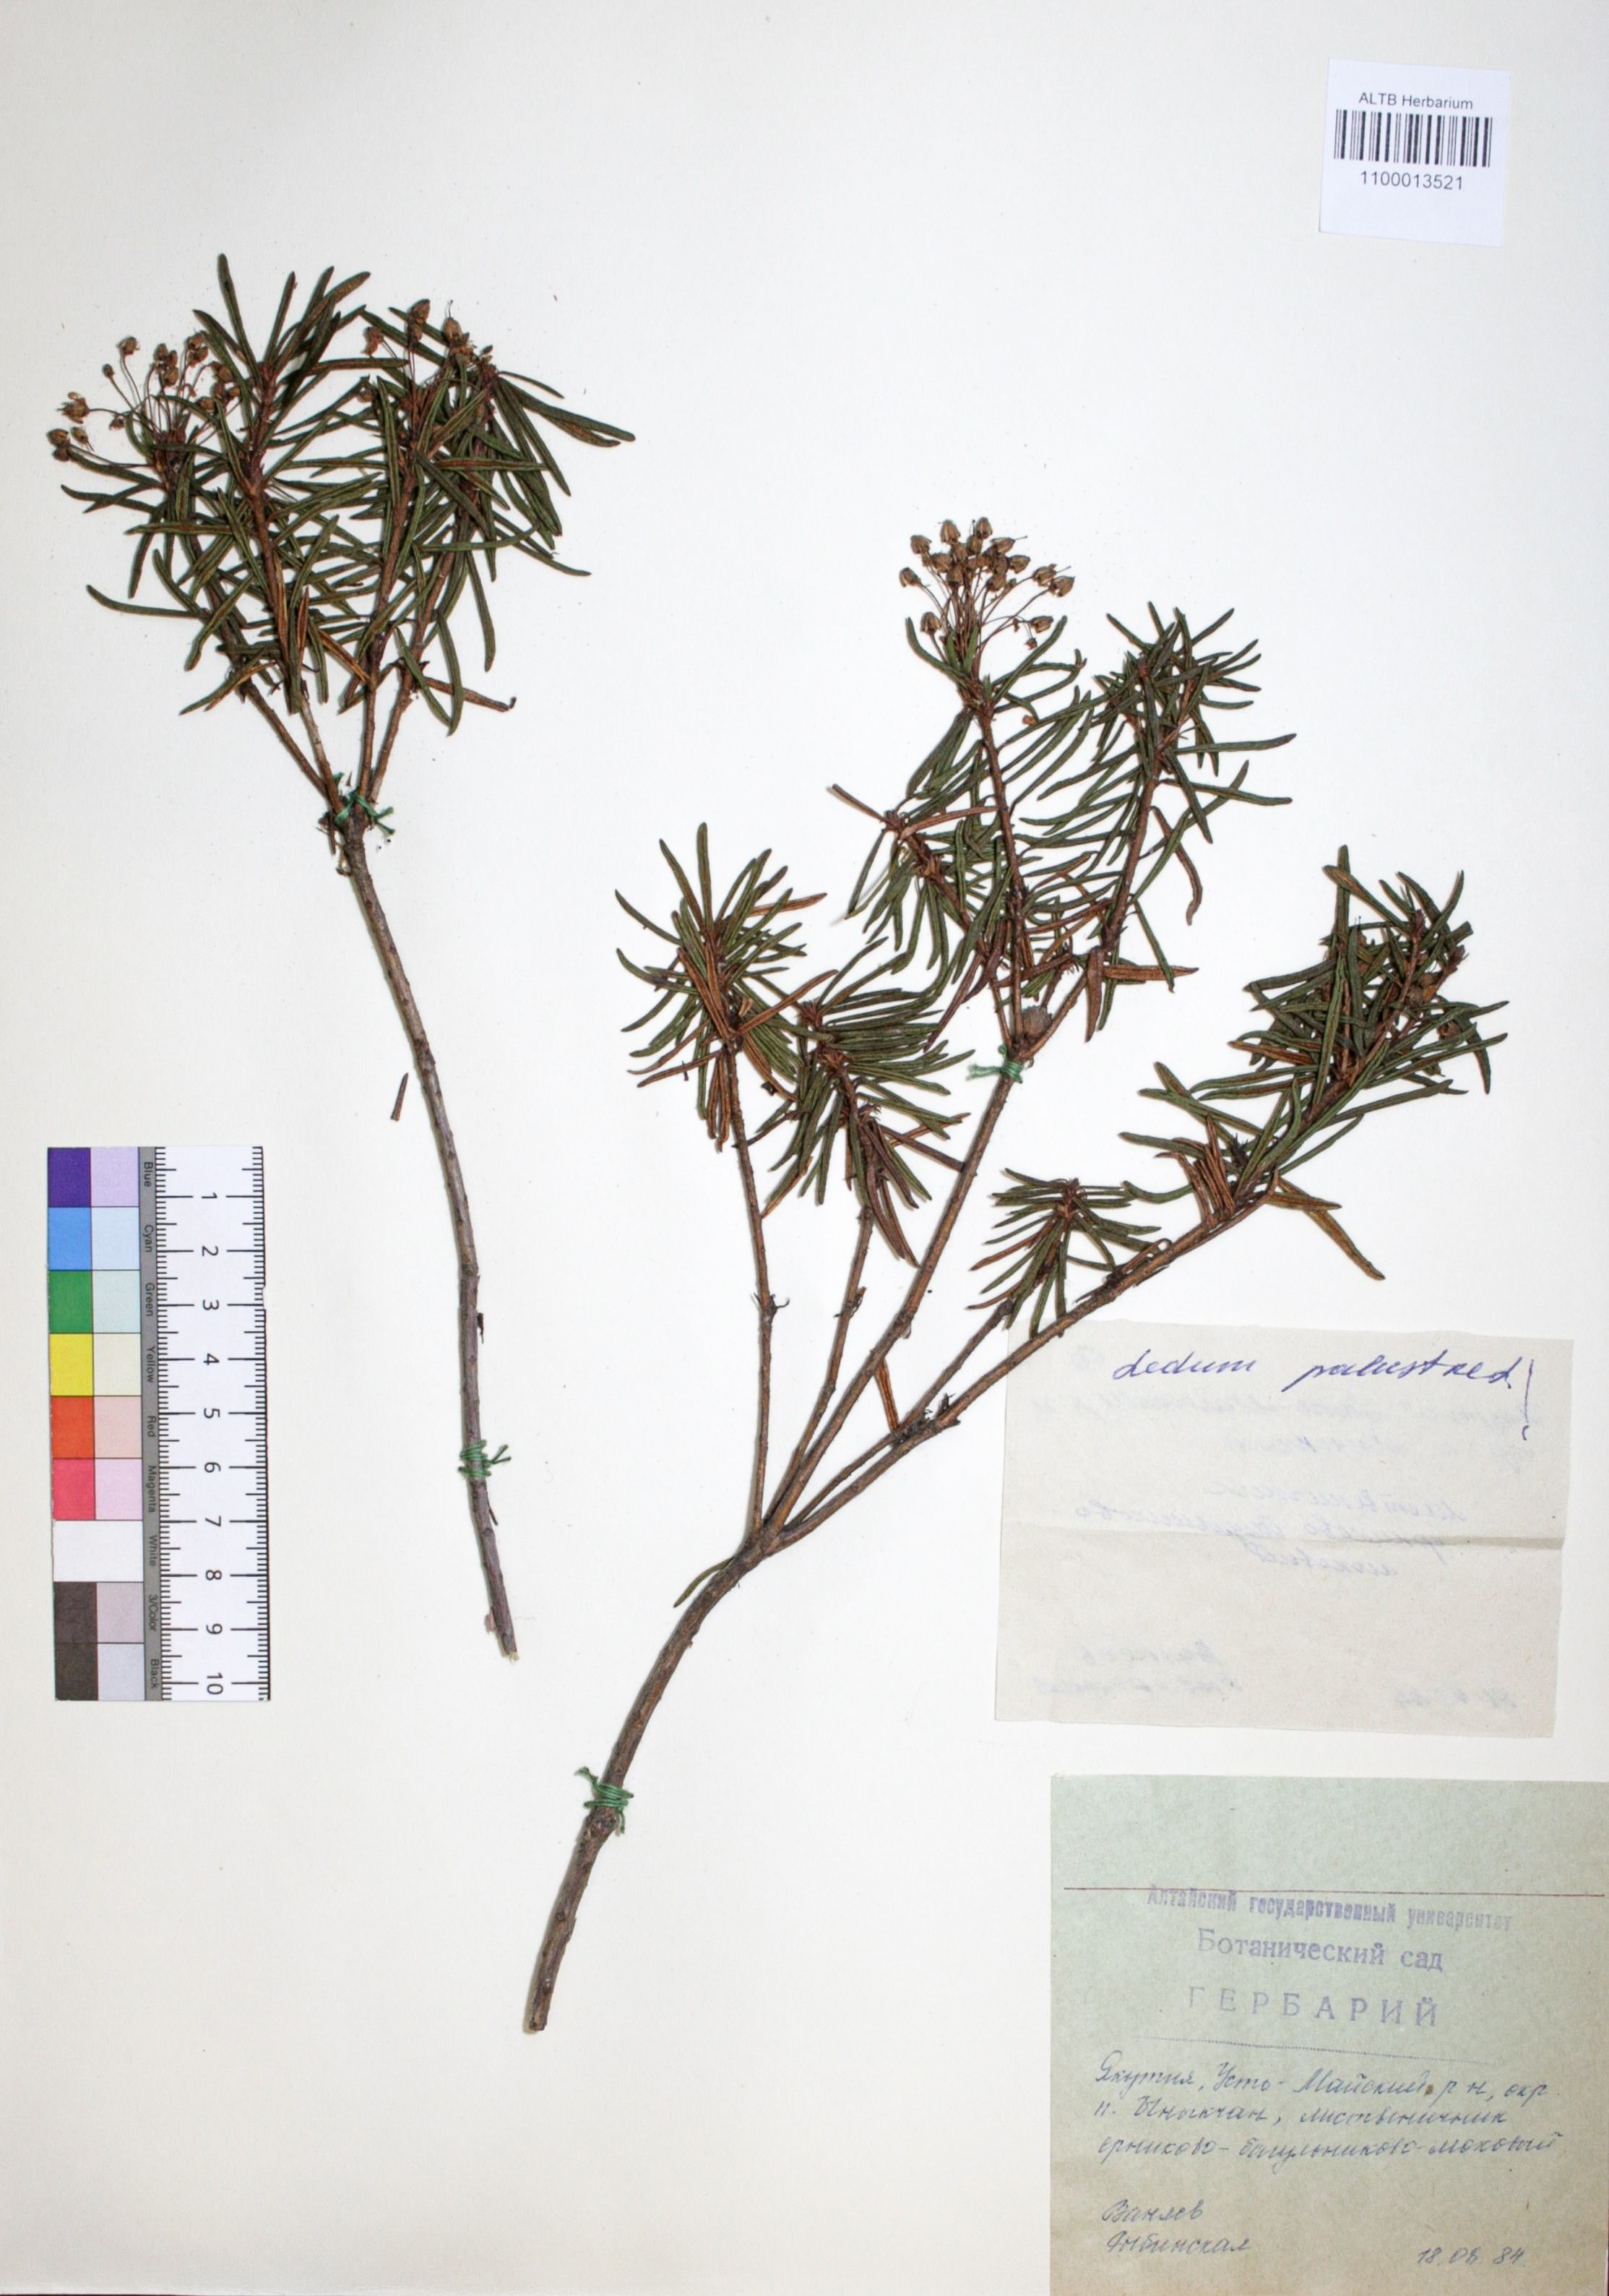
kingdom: Plantae
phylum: Tracheophyta
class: Magnoliopsida
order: Ericales
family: Ericaceae
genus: Rhododendron
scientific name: Rhododendron tomentosum
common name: Marsh labrador tea
